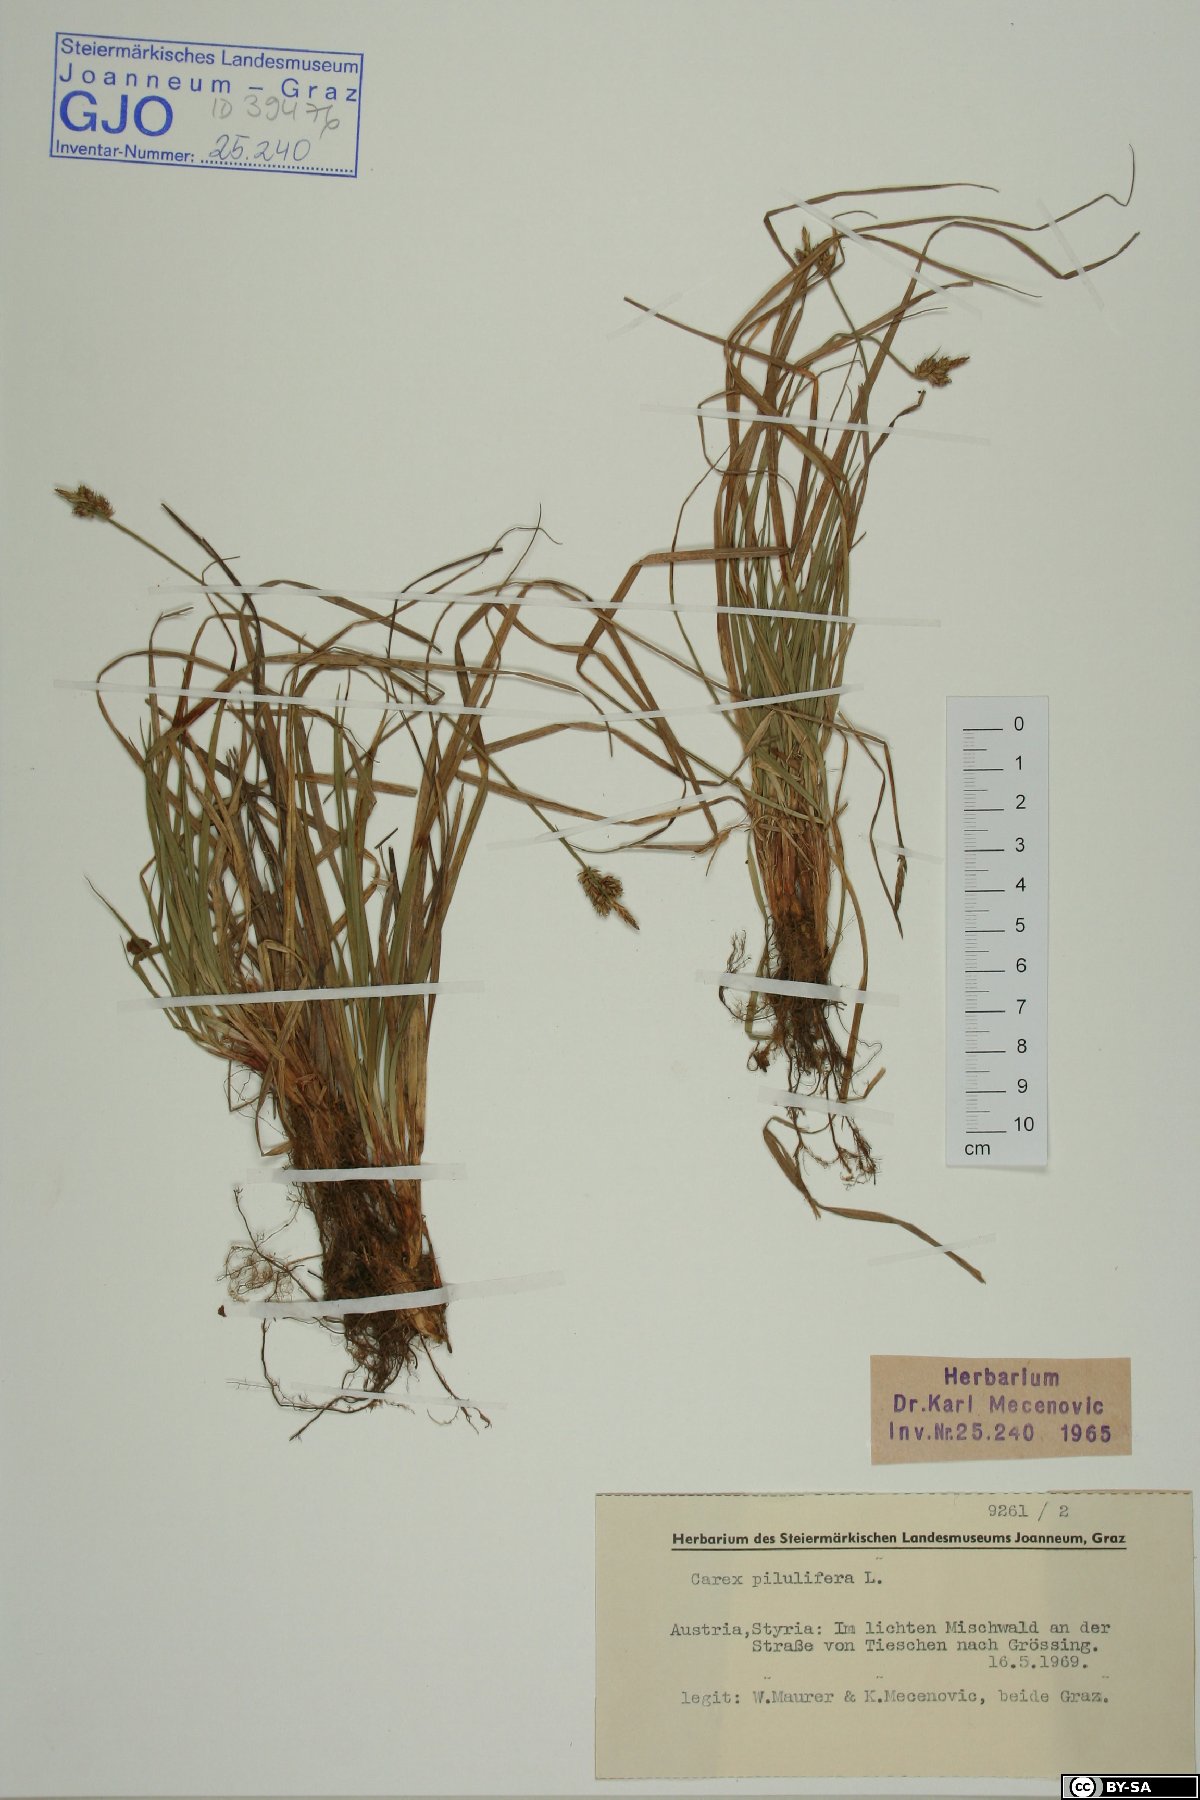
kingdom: Plantae
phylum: Tracheophyta
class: Liliopsida
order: Poales
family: Cyperaceae
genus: Carex
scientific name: Carex pilulifera
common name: Pill sedge
